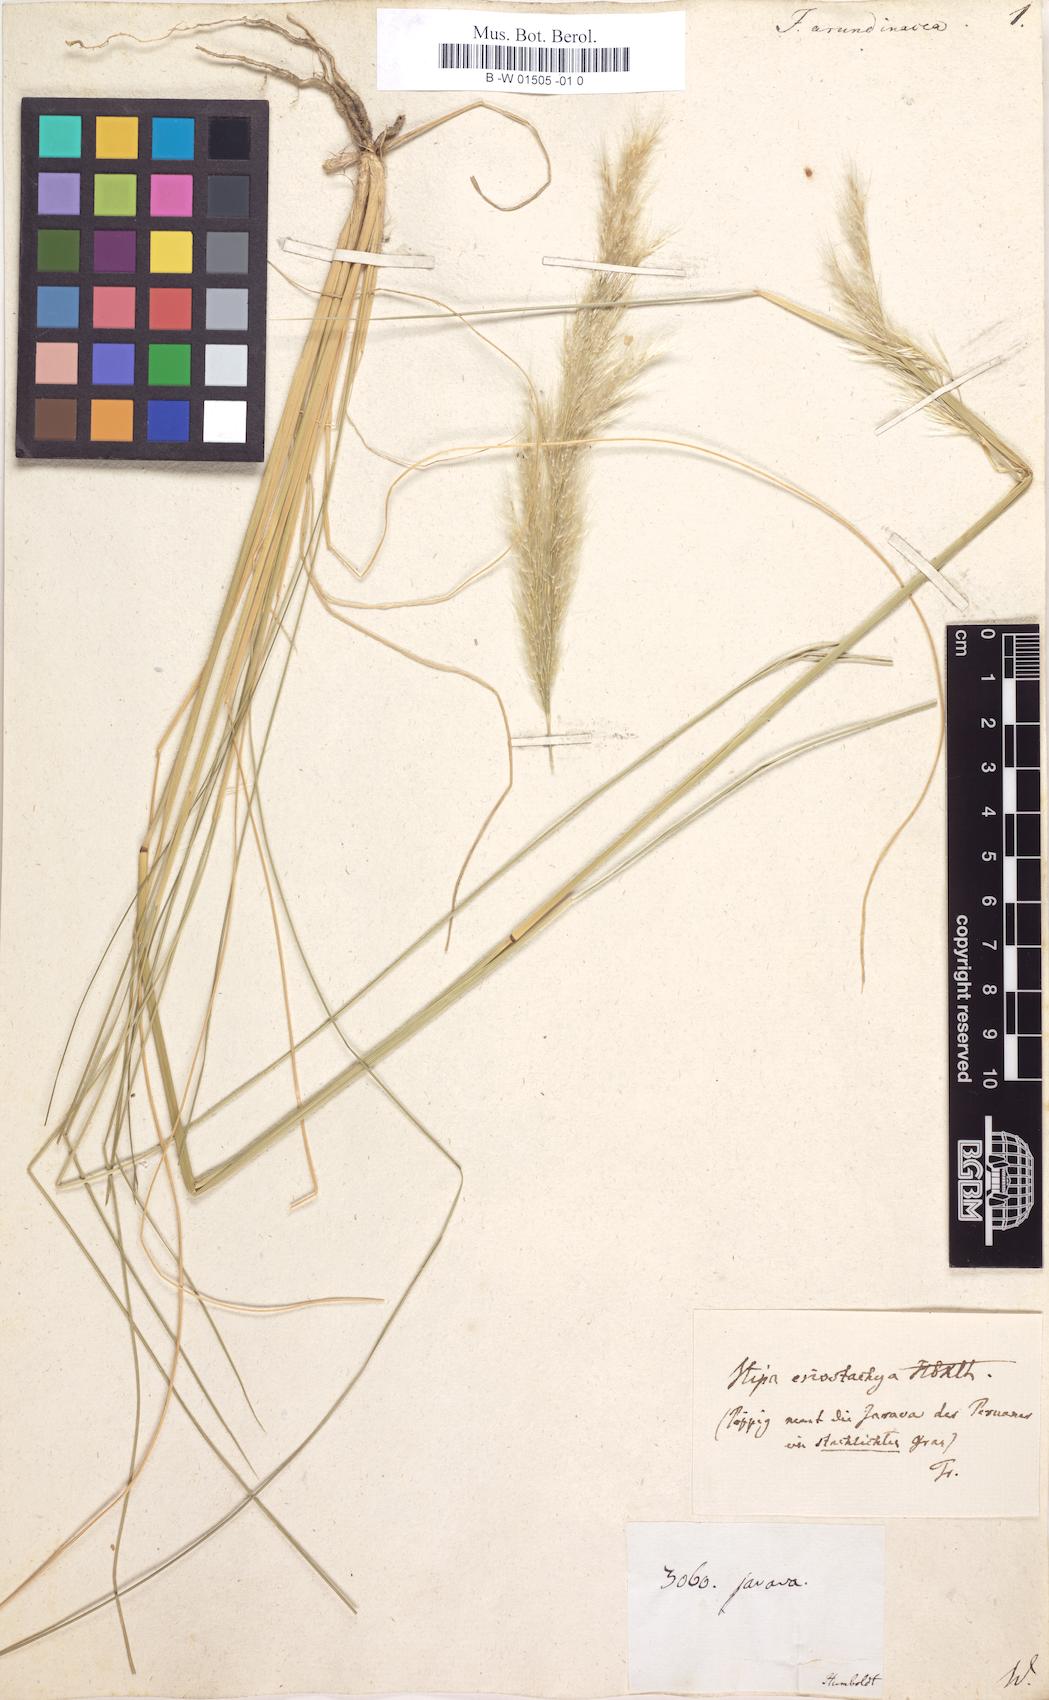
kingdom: Plantae
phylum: Tracheophyta
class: Liliopsida
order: Poales
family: Poaceae
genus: Jarava
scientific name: Jarava ichu
